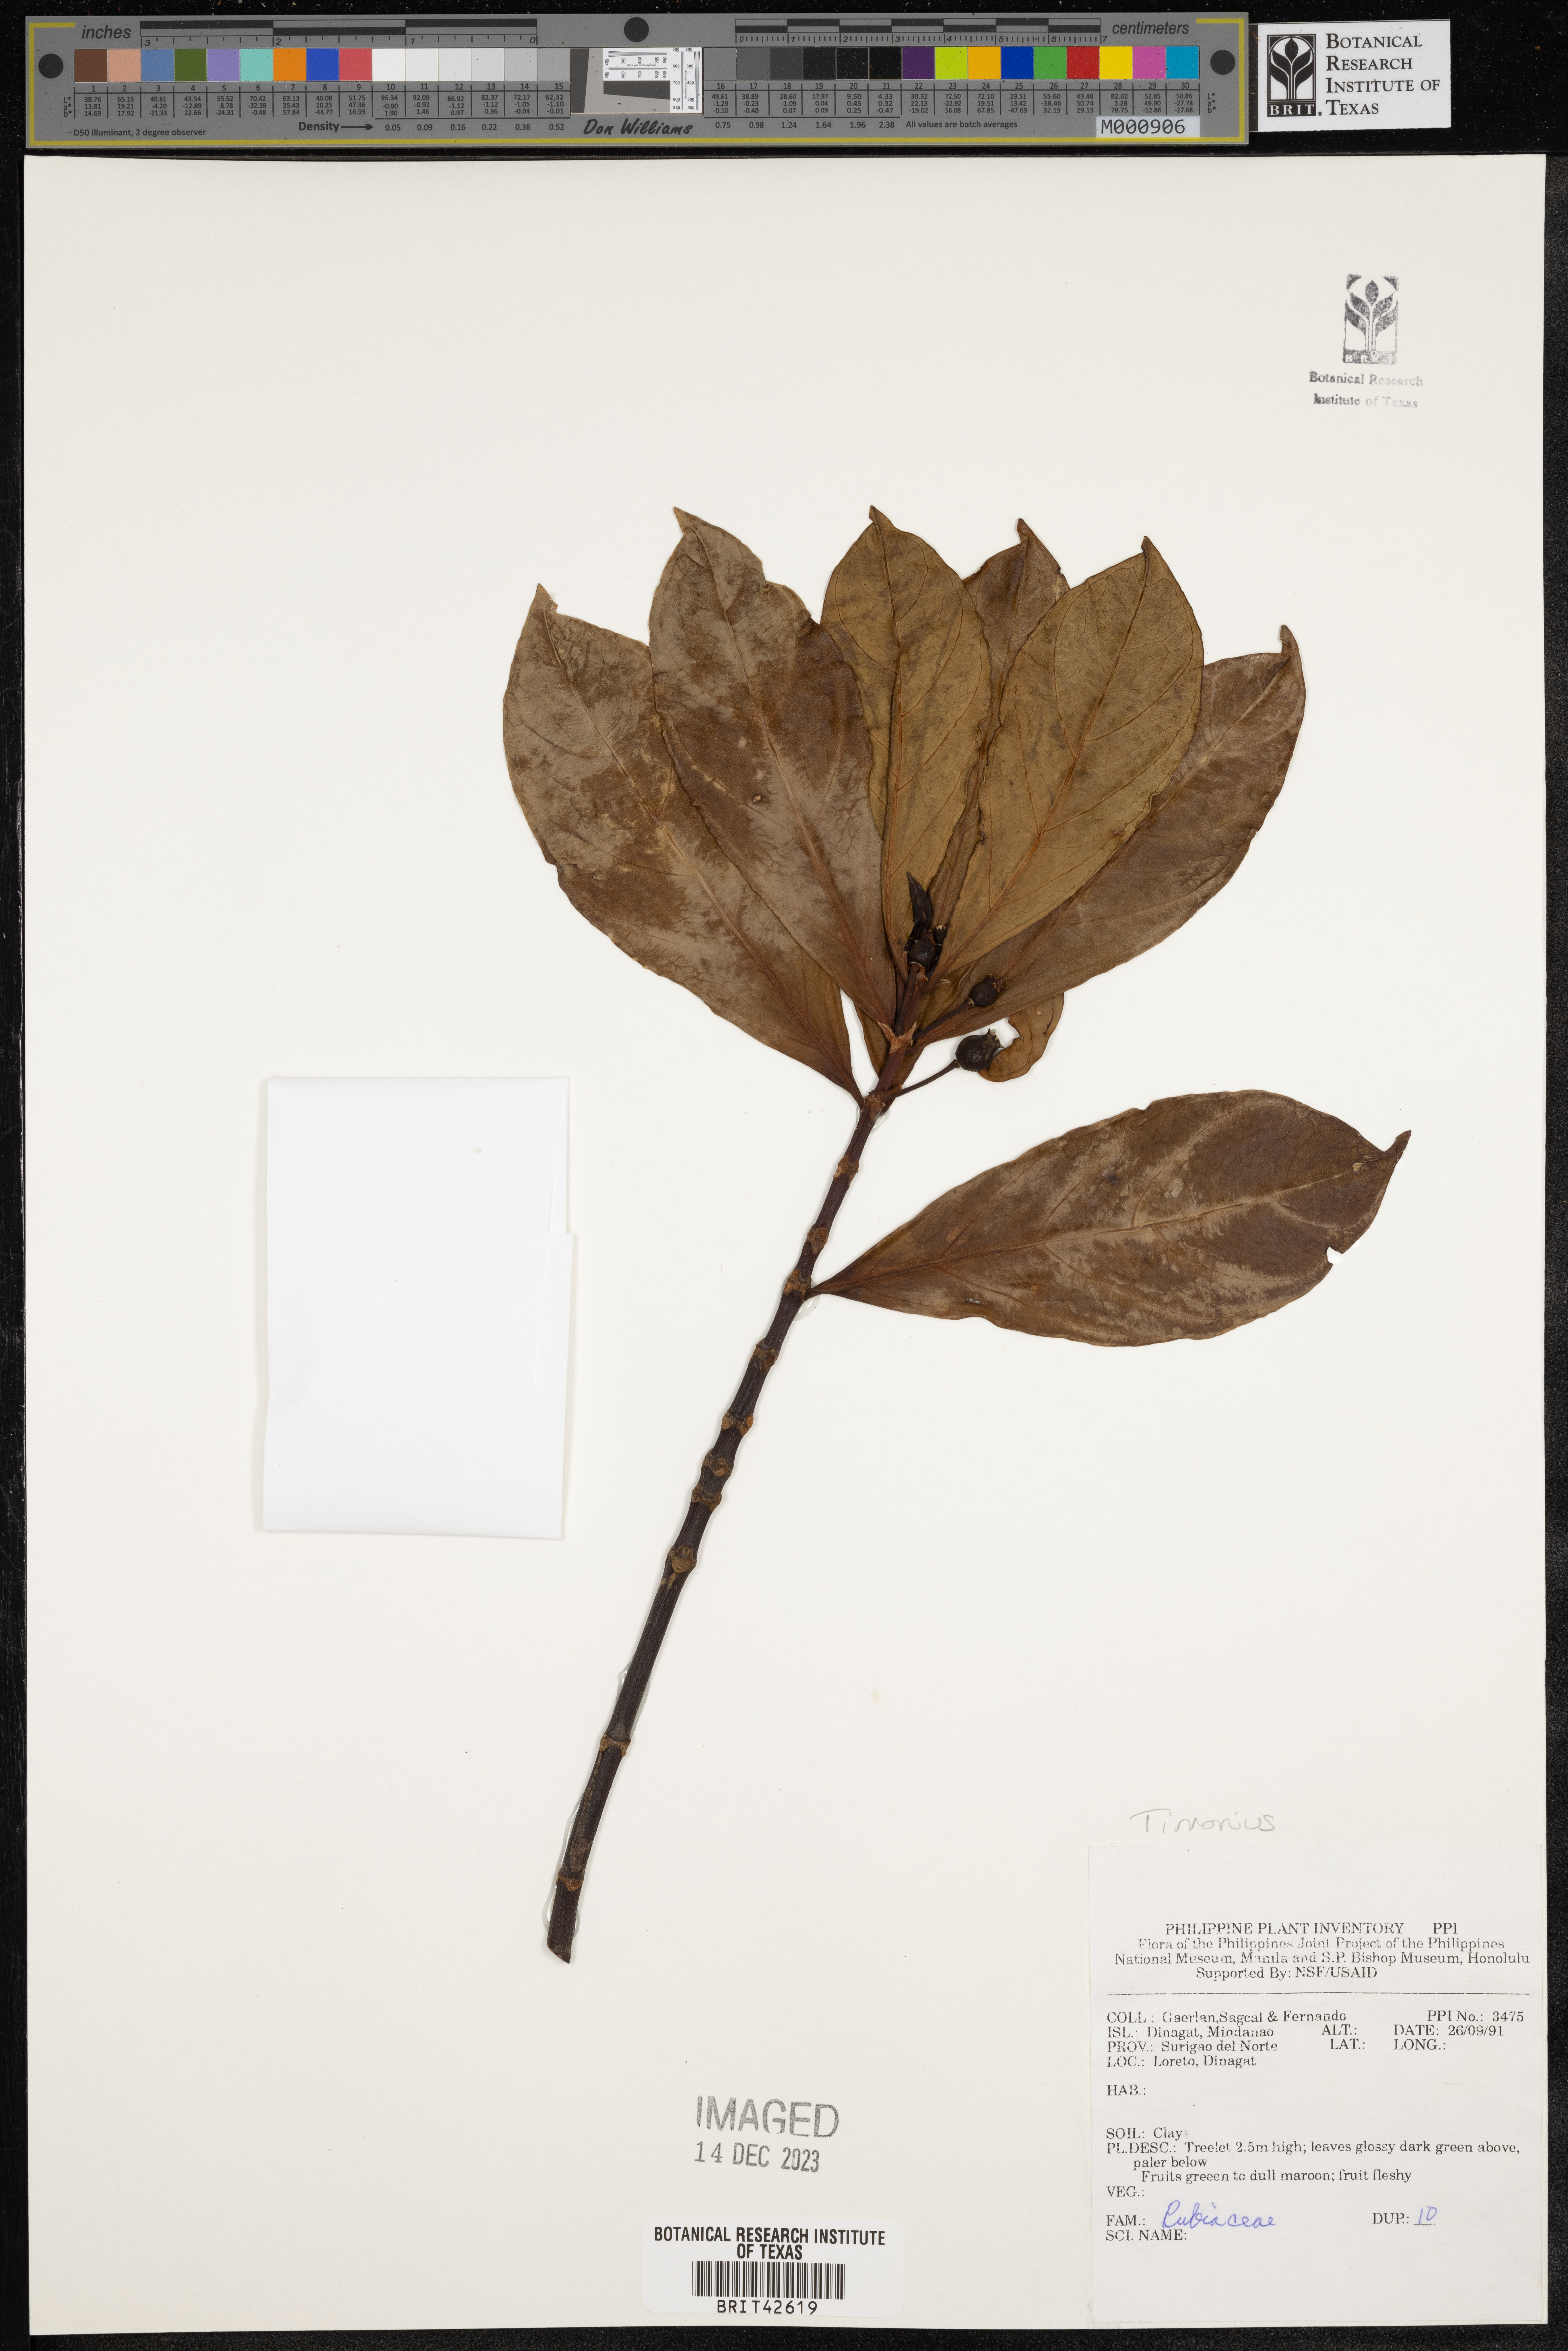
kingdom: Plantae
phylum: Tracheophyta
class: Magnoliopsida
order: Gentianales
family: Rubiaceae
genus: Timonius
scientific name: Timonius
